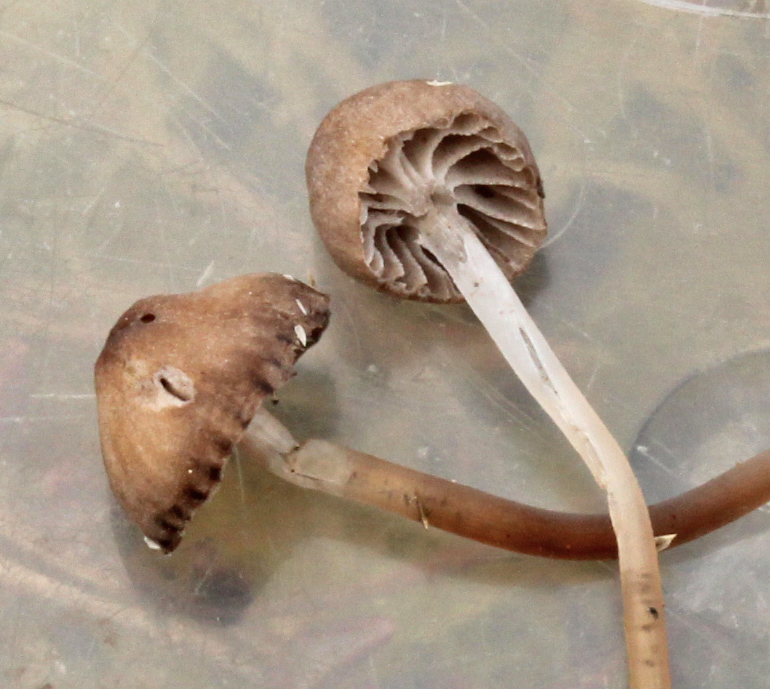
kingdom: Fungi
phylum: Basidiomycota
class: Agaricomycetes
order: Agaricales
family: Mycenaceae
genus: Mycena
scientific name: Mycena concolor
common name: tørvemos-huesvamp
